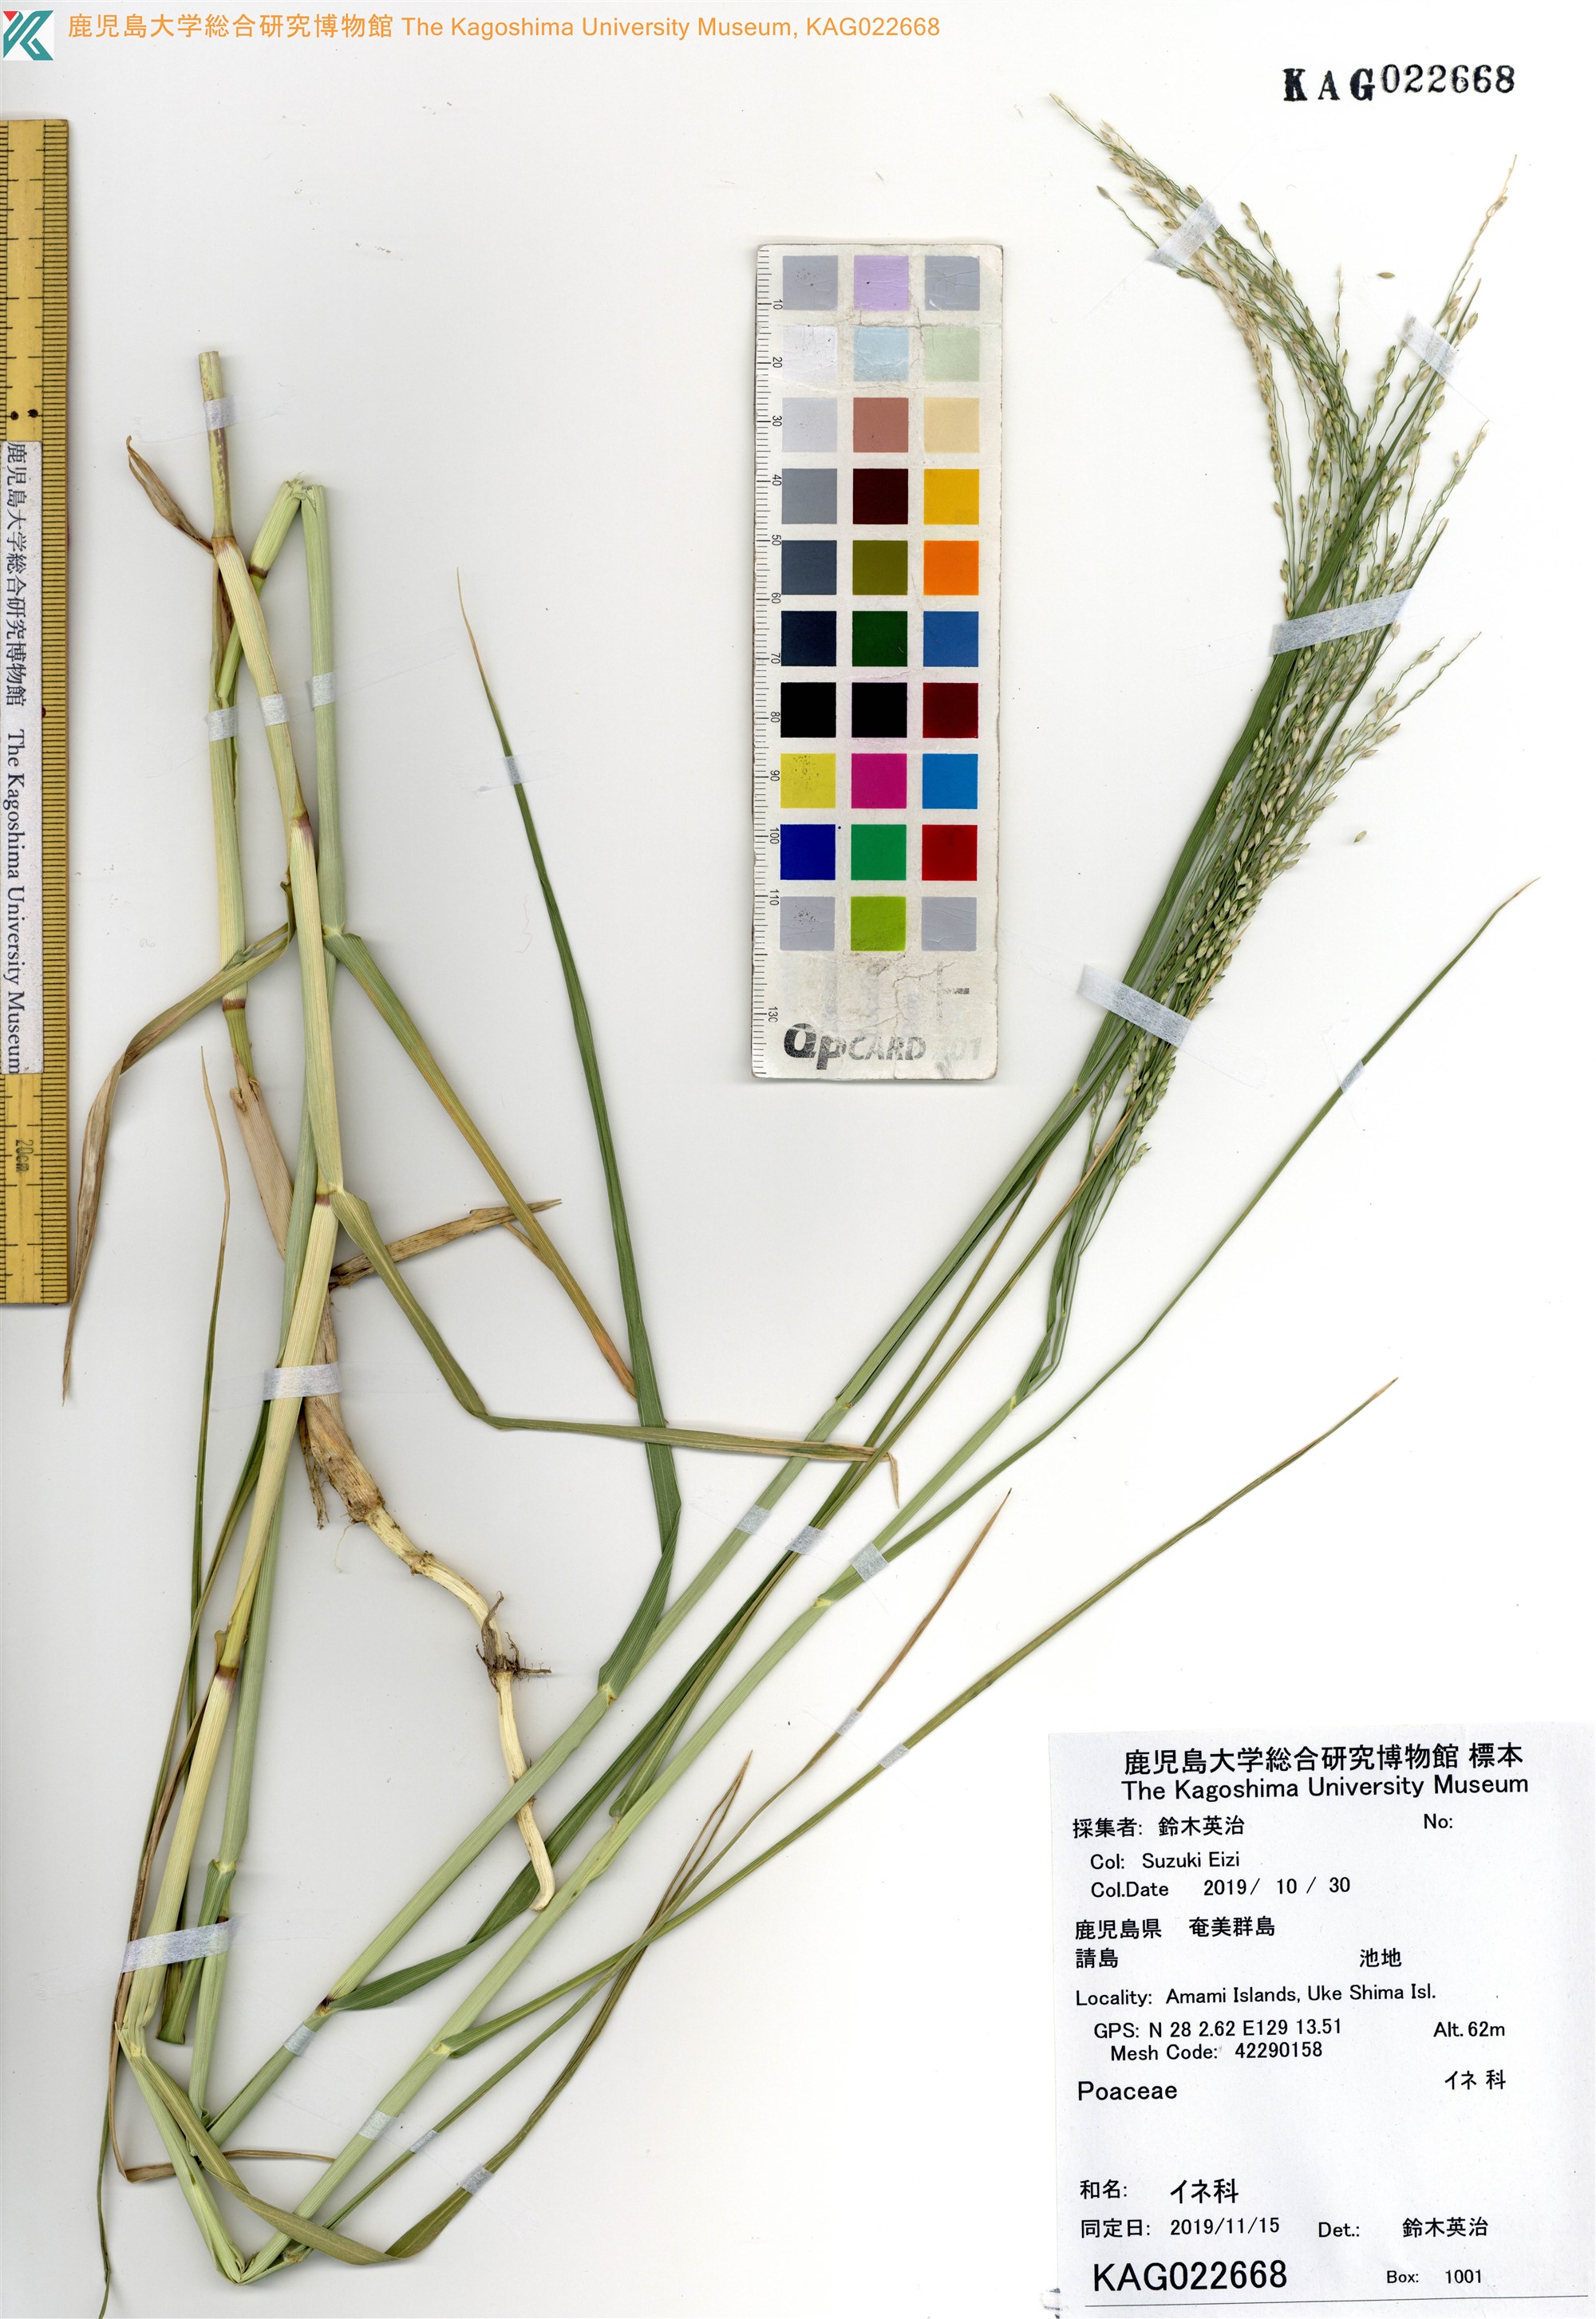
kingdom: Plantae
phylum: Tracheophyta
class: Liliopsida
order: Poales
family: Poaceae
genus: Panicum
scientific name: Panicum bisulcatum
